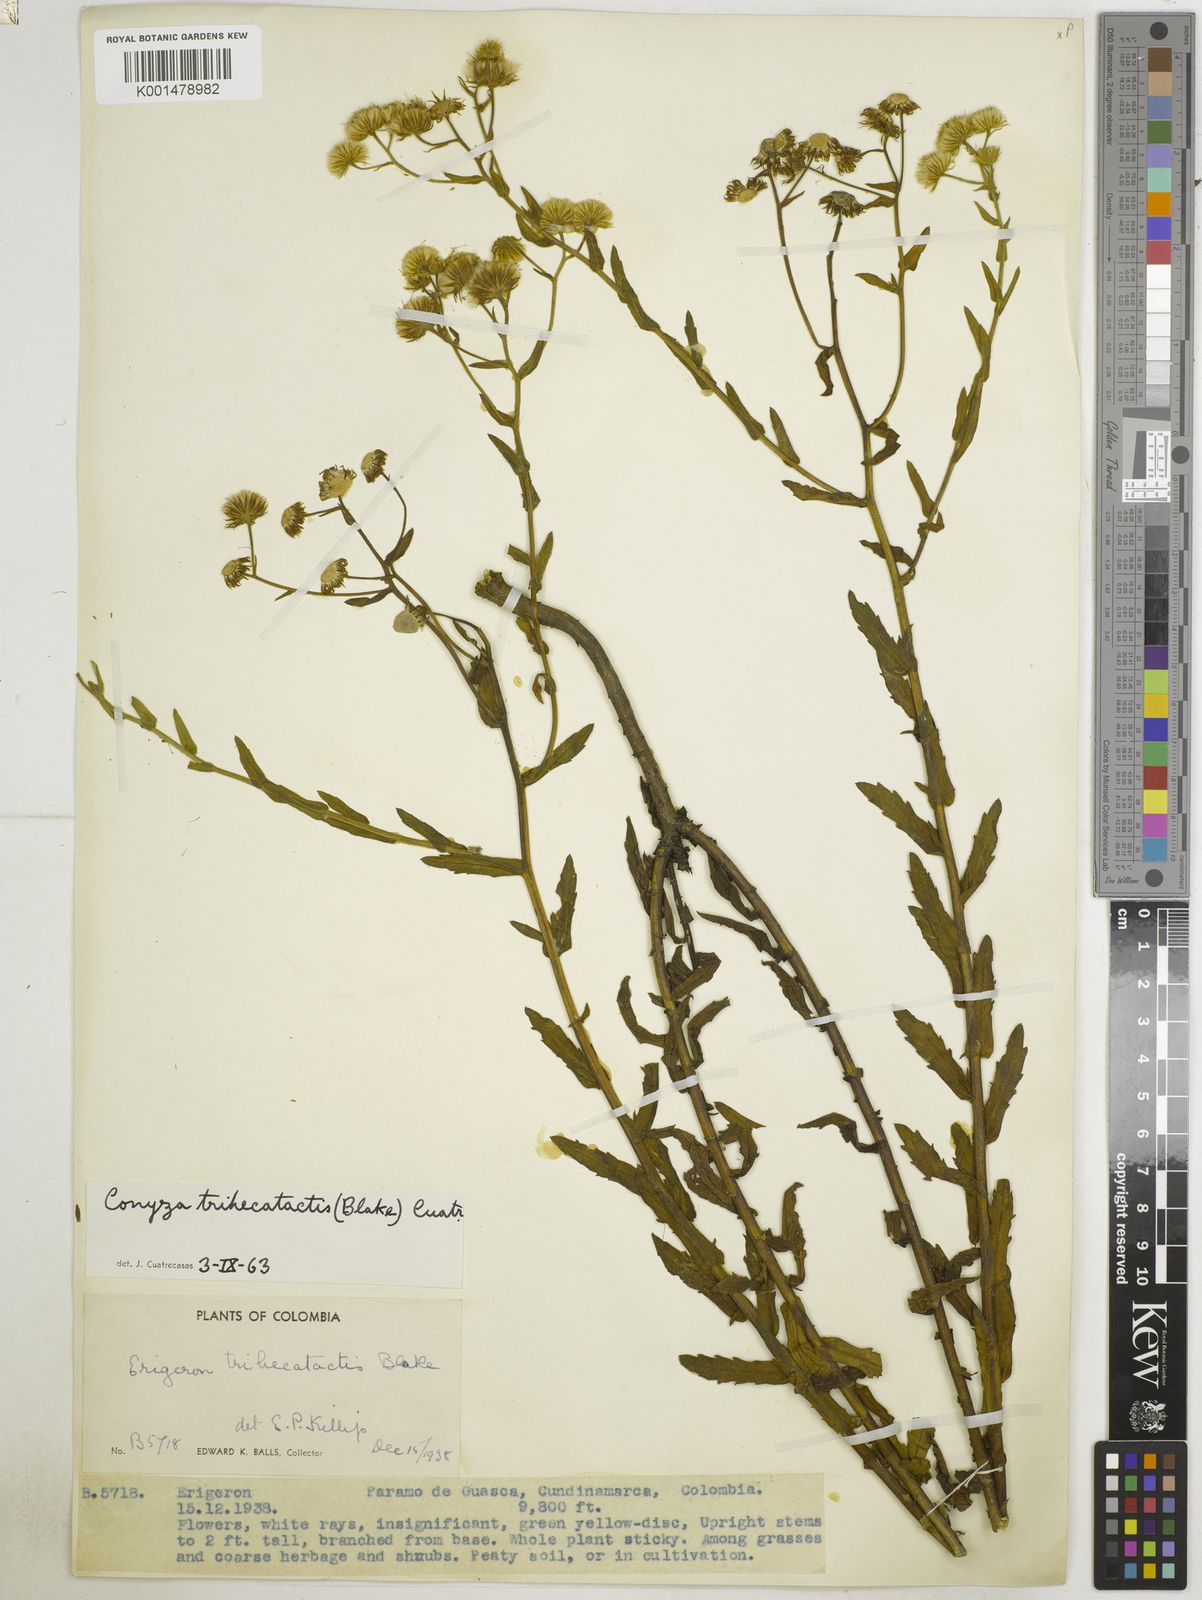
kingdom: Plantae
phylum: Tracheophyta
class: Magnoliopsida
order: Asterales
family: Asteraceae
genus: Erigeron
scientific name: Erigeron trihecatactis
